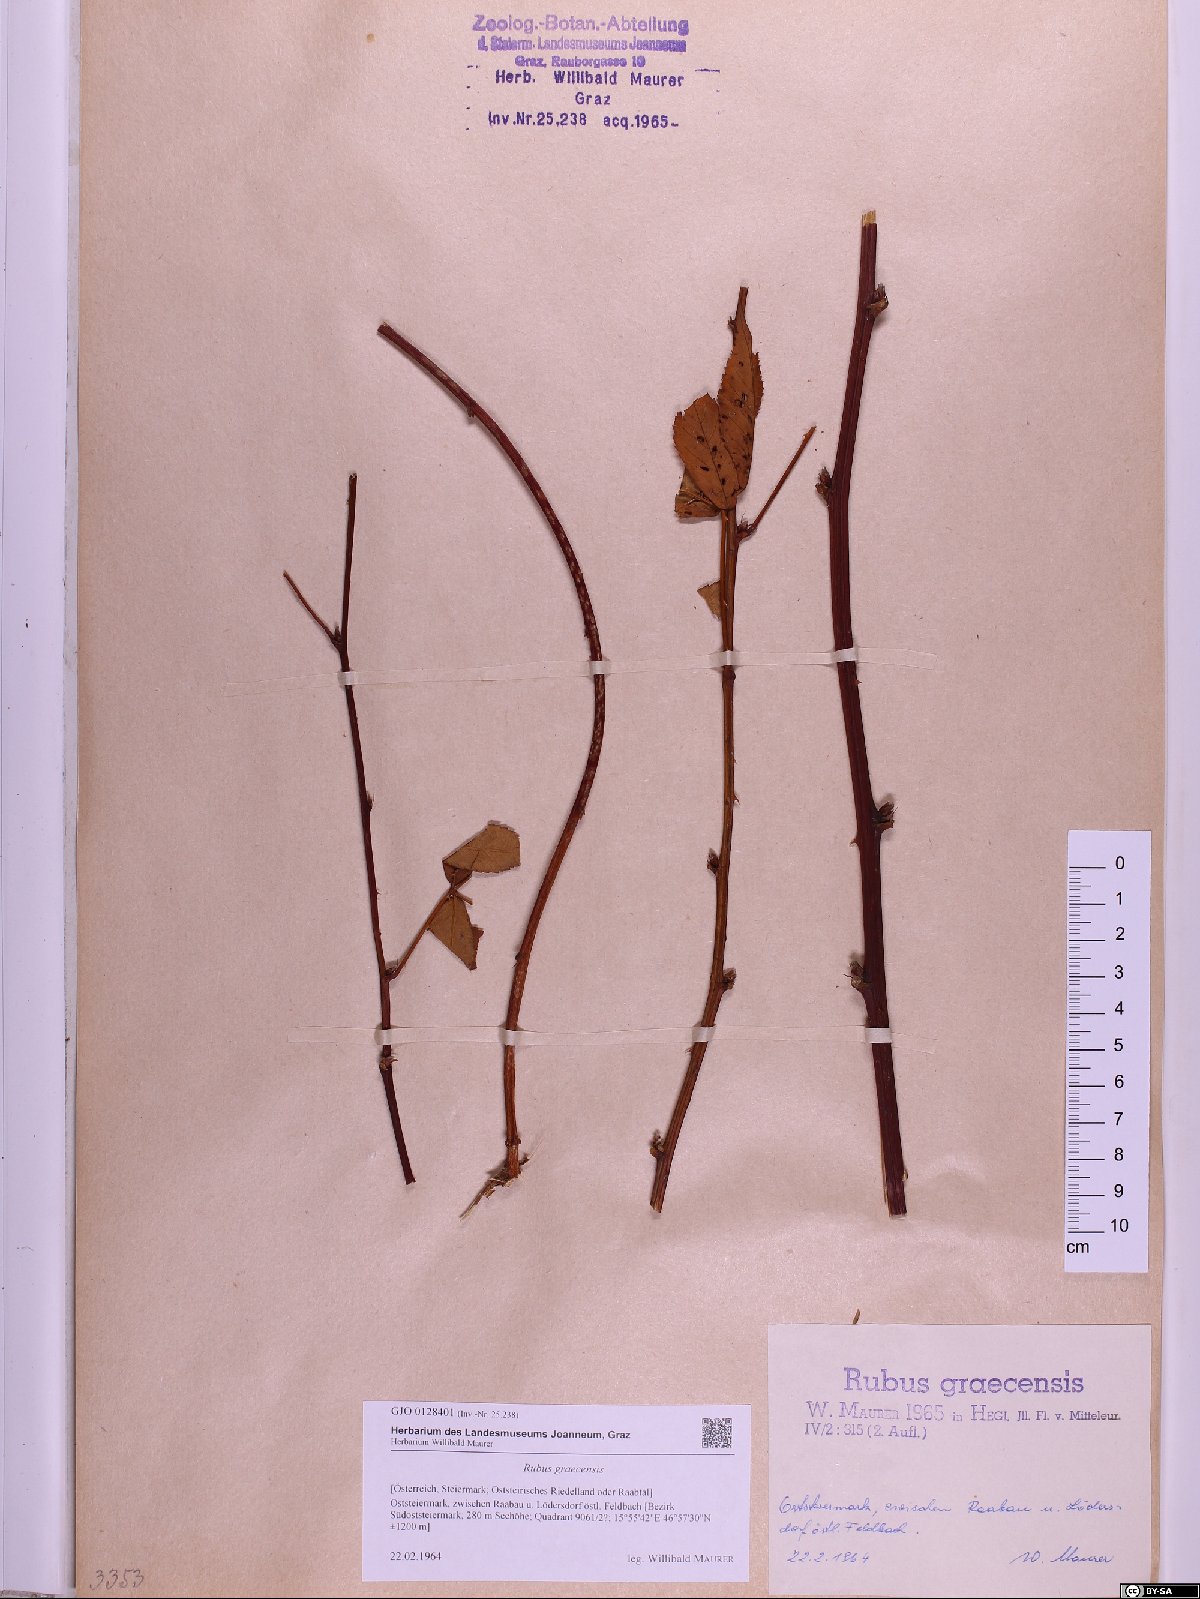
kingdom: Plantae
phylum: Tracheophyta
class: Magnoliopsida
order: Rosales
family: Rosaceae
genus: Rubus
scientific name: Rubus graecensis
